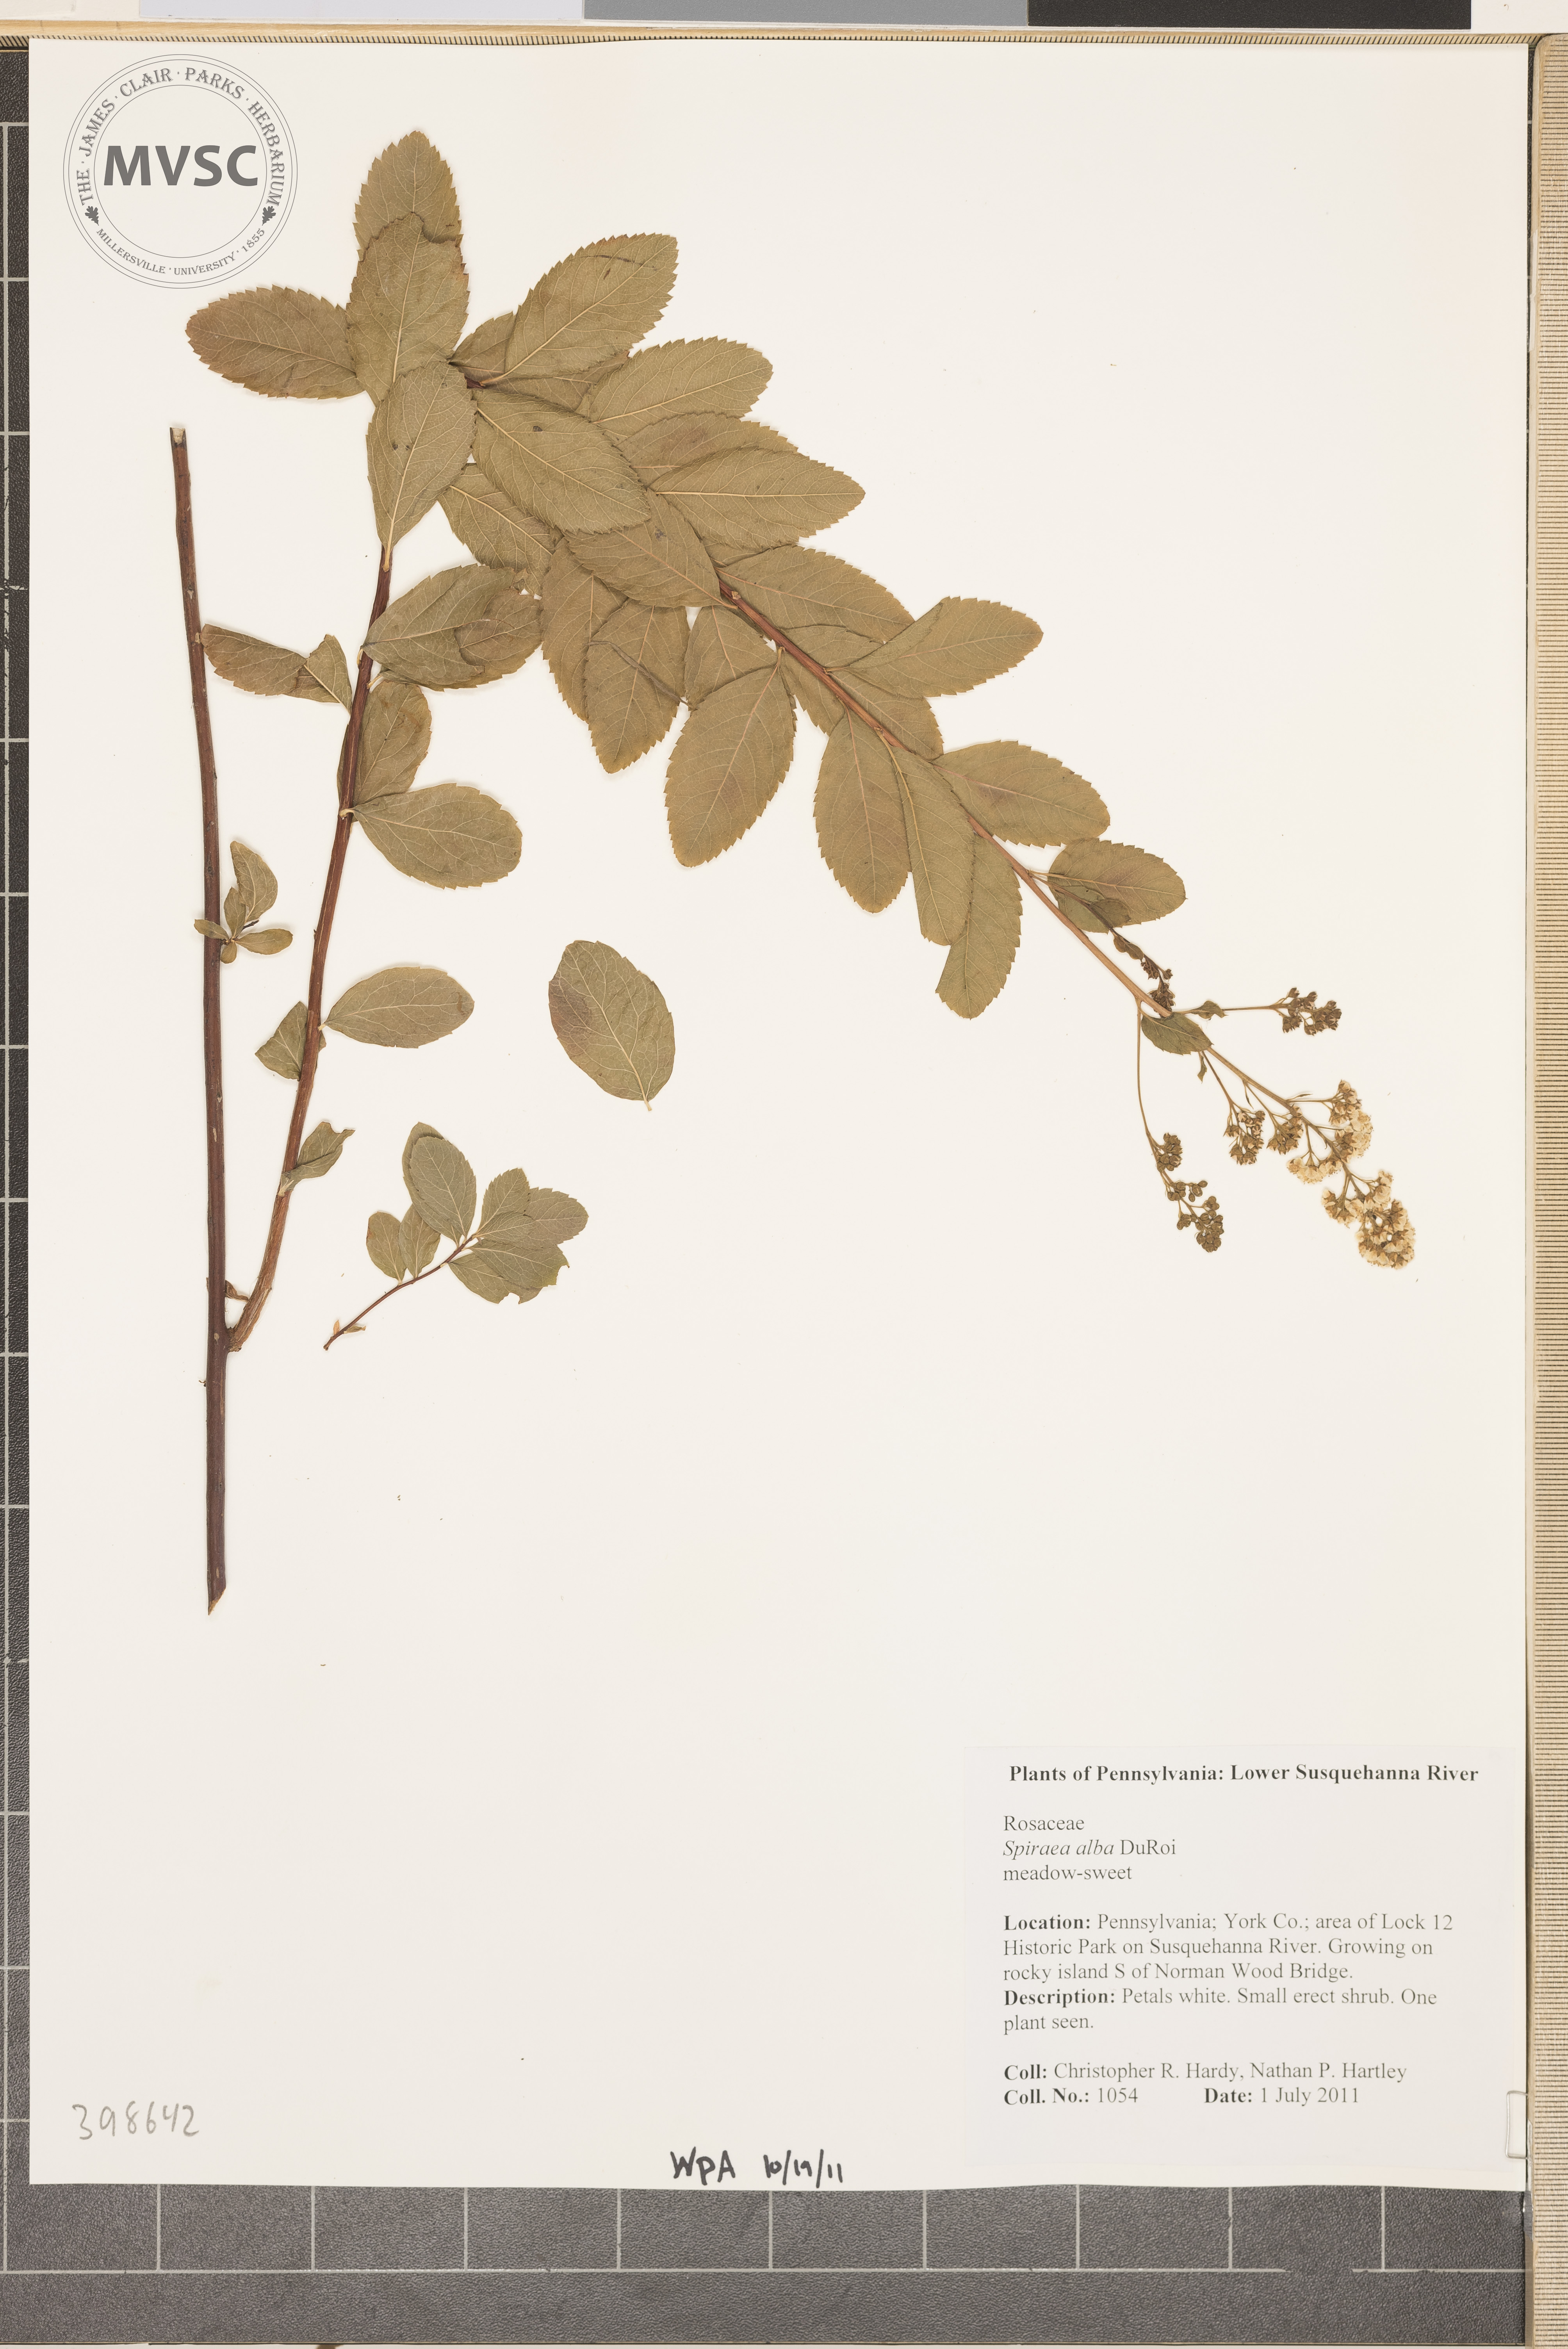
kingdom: Plantae
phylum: Tracheophyta
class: Magnoliopsida
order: Rosales
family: Rosaceae
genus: Spiraea
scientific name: Spiraea alba
